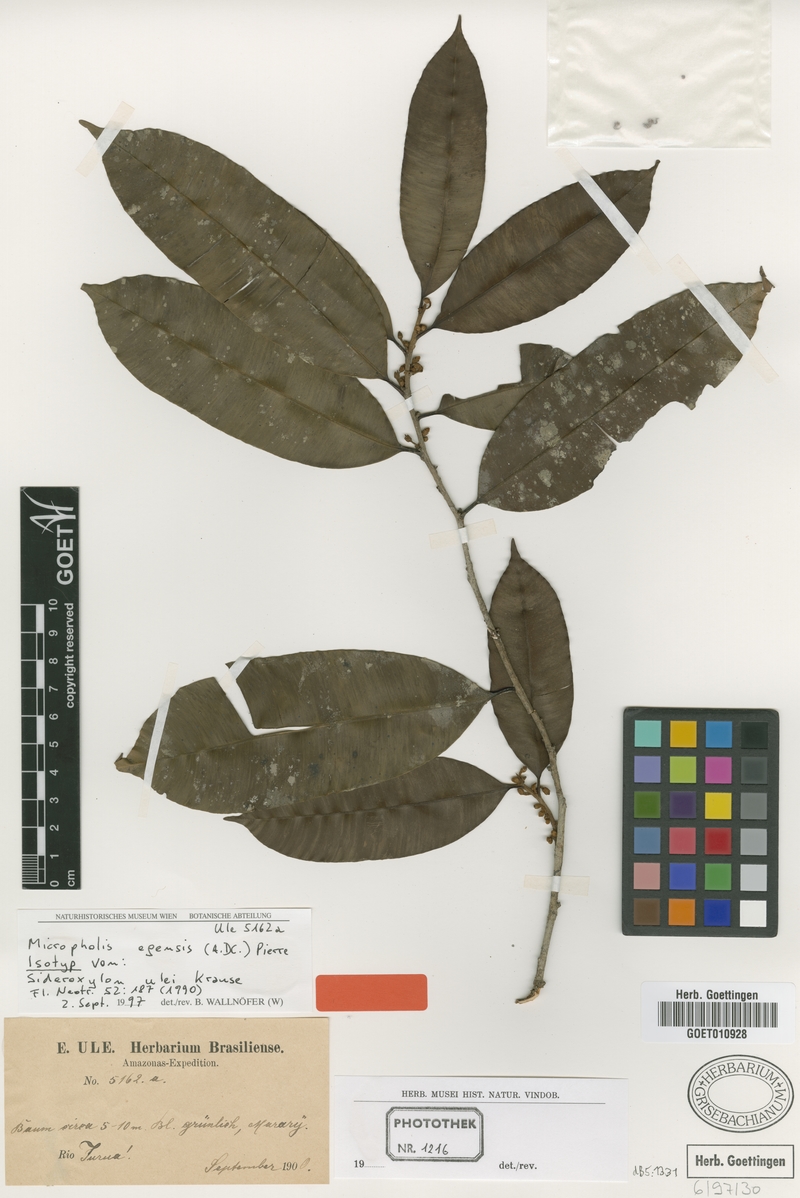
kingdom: Plantae
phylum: Tracheophyta
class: Magnoliopsida
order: Ericales
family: Sapotaceae
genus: Micropholis
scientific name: Micropholis egensis
